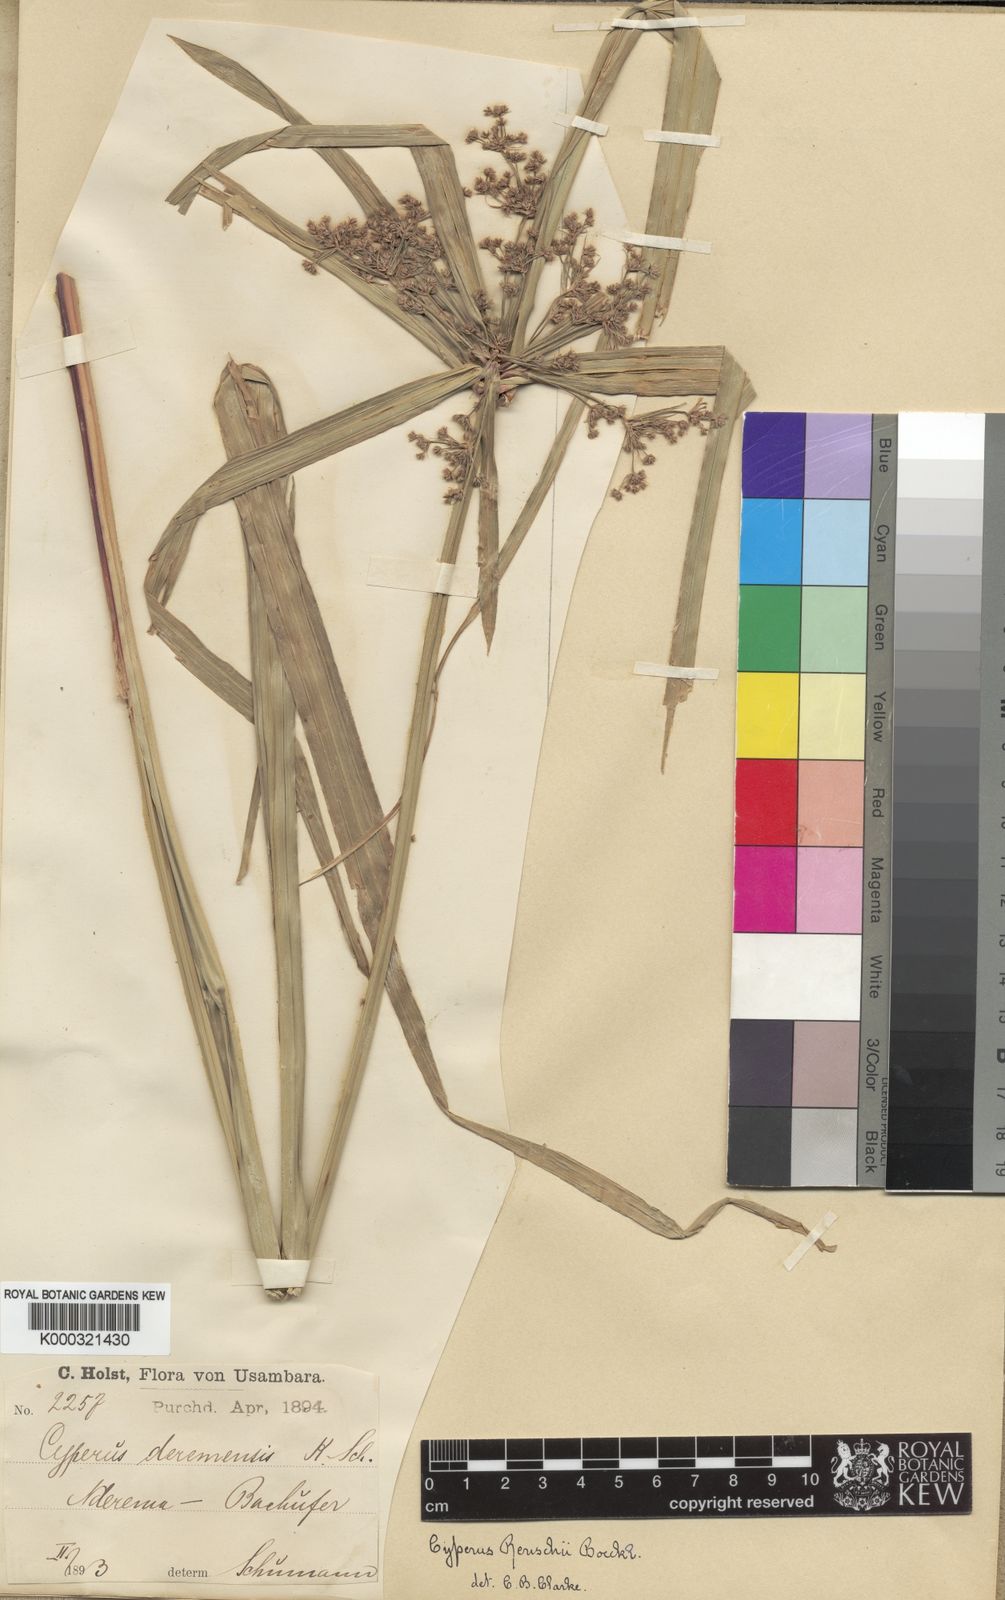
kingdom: Plantae
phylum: Tracheophyta
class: Liliopsida
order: Poales
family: Cyperaceae
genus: Cyperus
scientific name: Cyperus renschii
